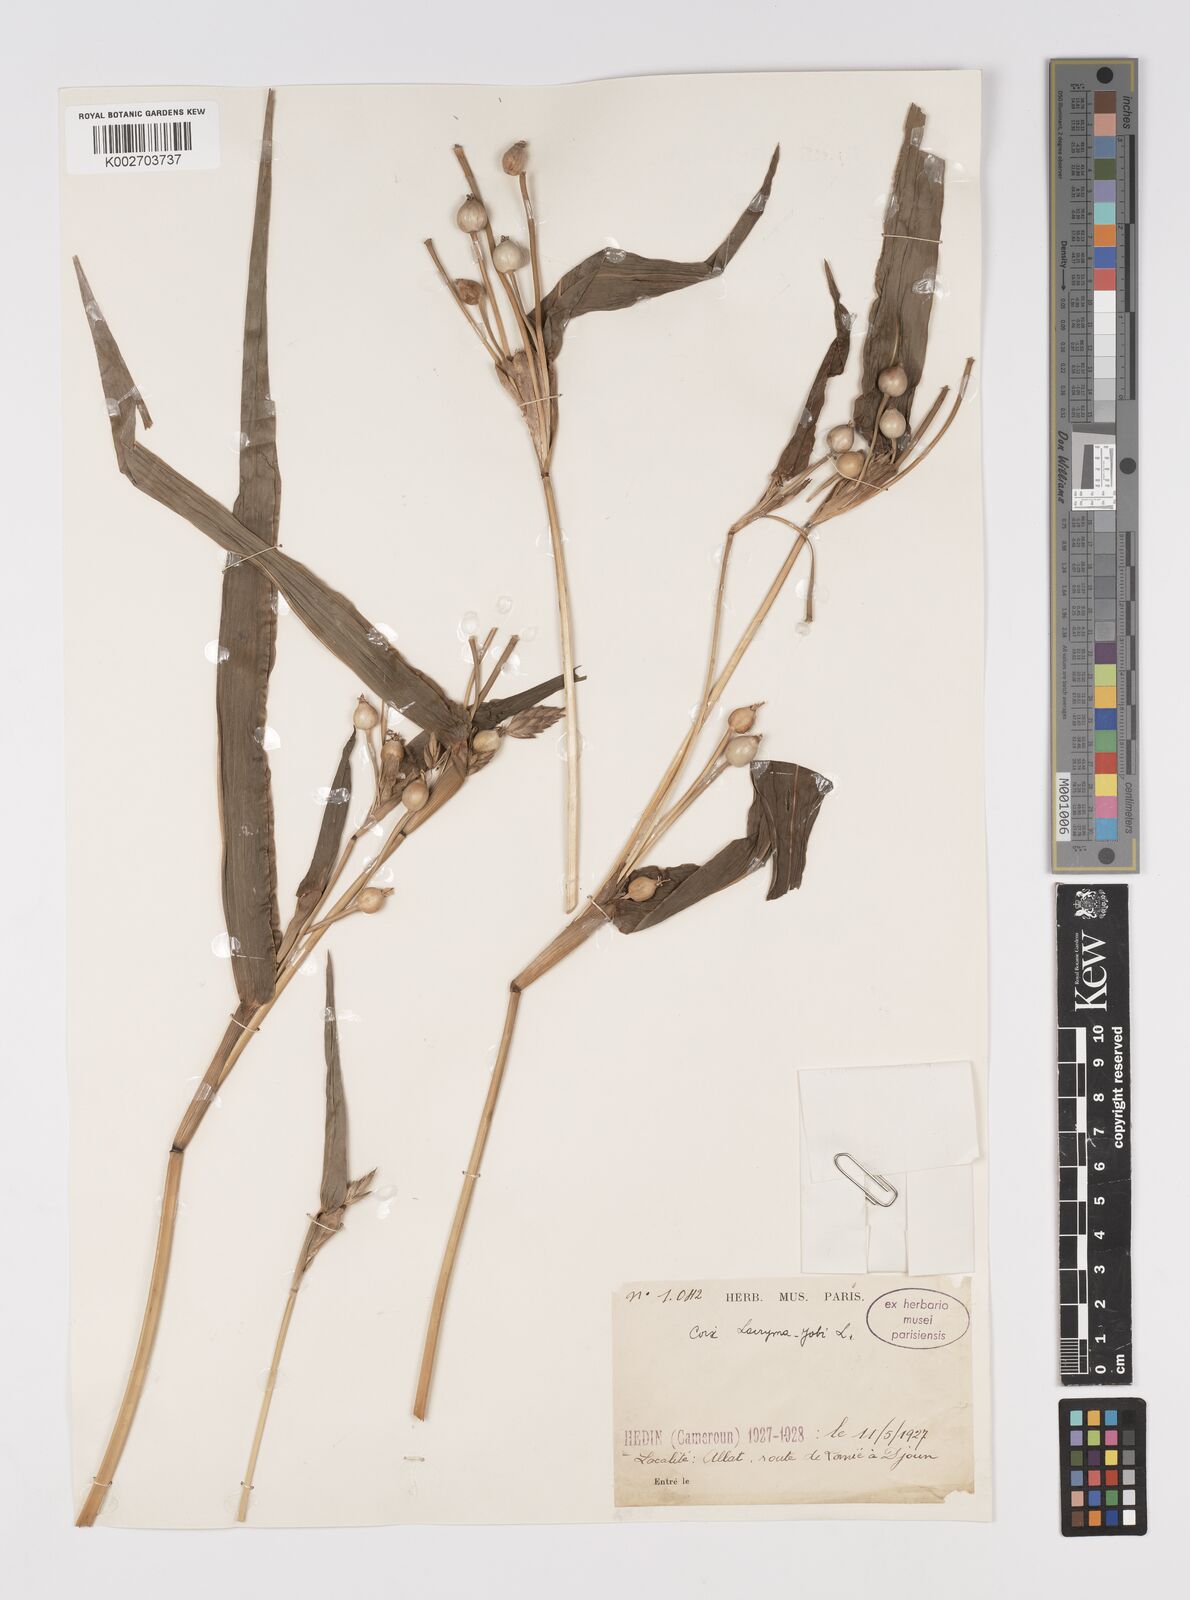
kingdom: Plantae
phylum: Tracheophyta
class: Liliopsida
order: Poales
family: Poaceae
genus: Coix
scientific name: Coix lacryma-jobi
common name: Job's tears
